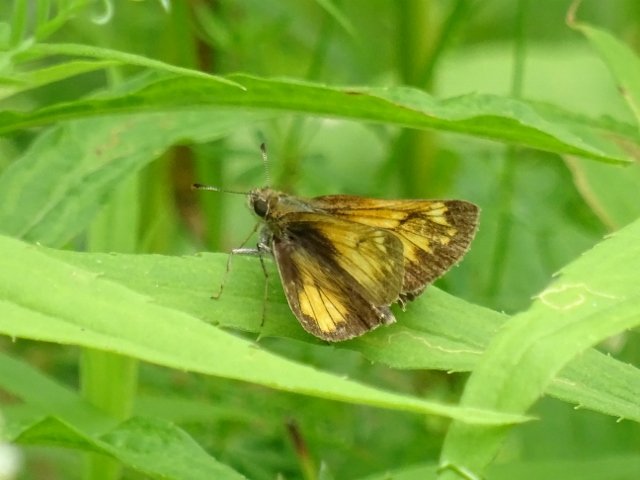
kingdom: Animalia
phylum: Arthropoda
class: Insecta
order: Lepidoptera
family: Hesperiidae
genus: Lon
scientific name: Lon hobomok
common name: Hobomok Skipper
